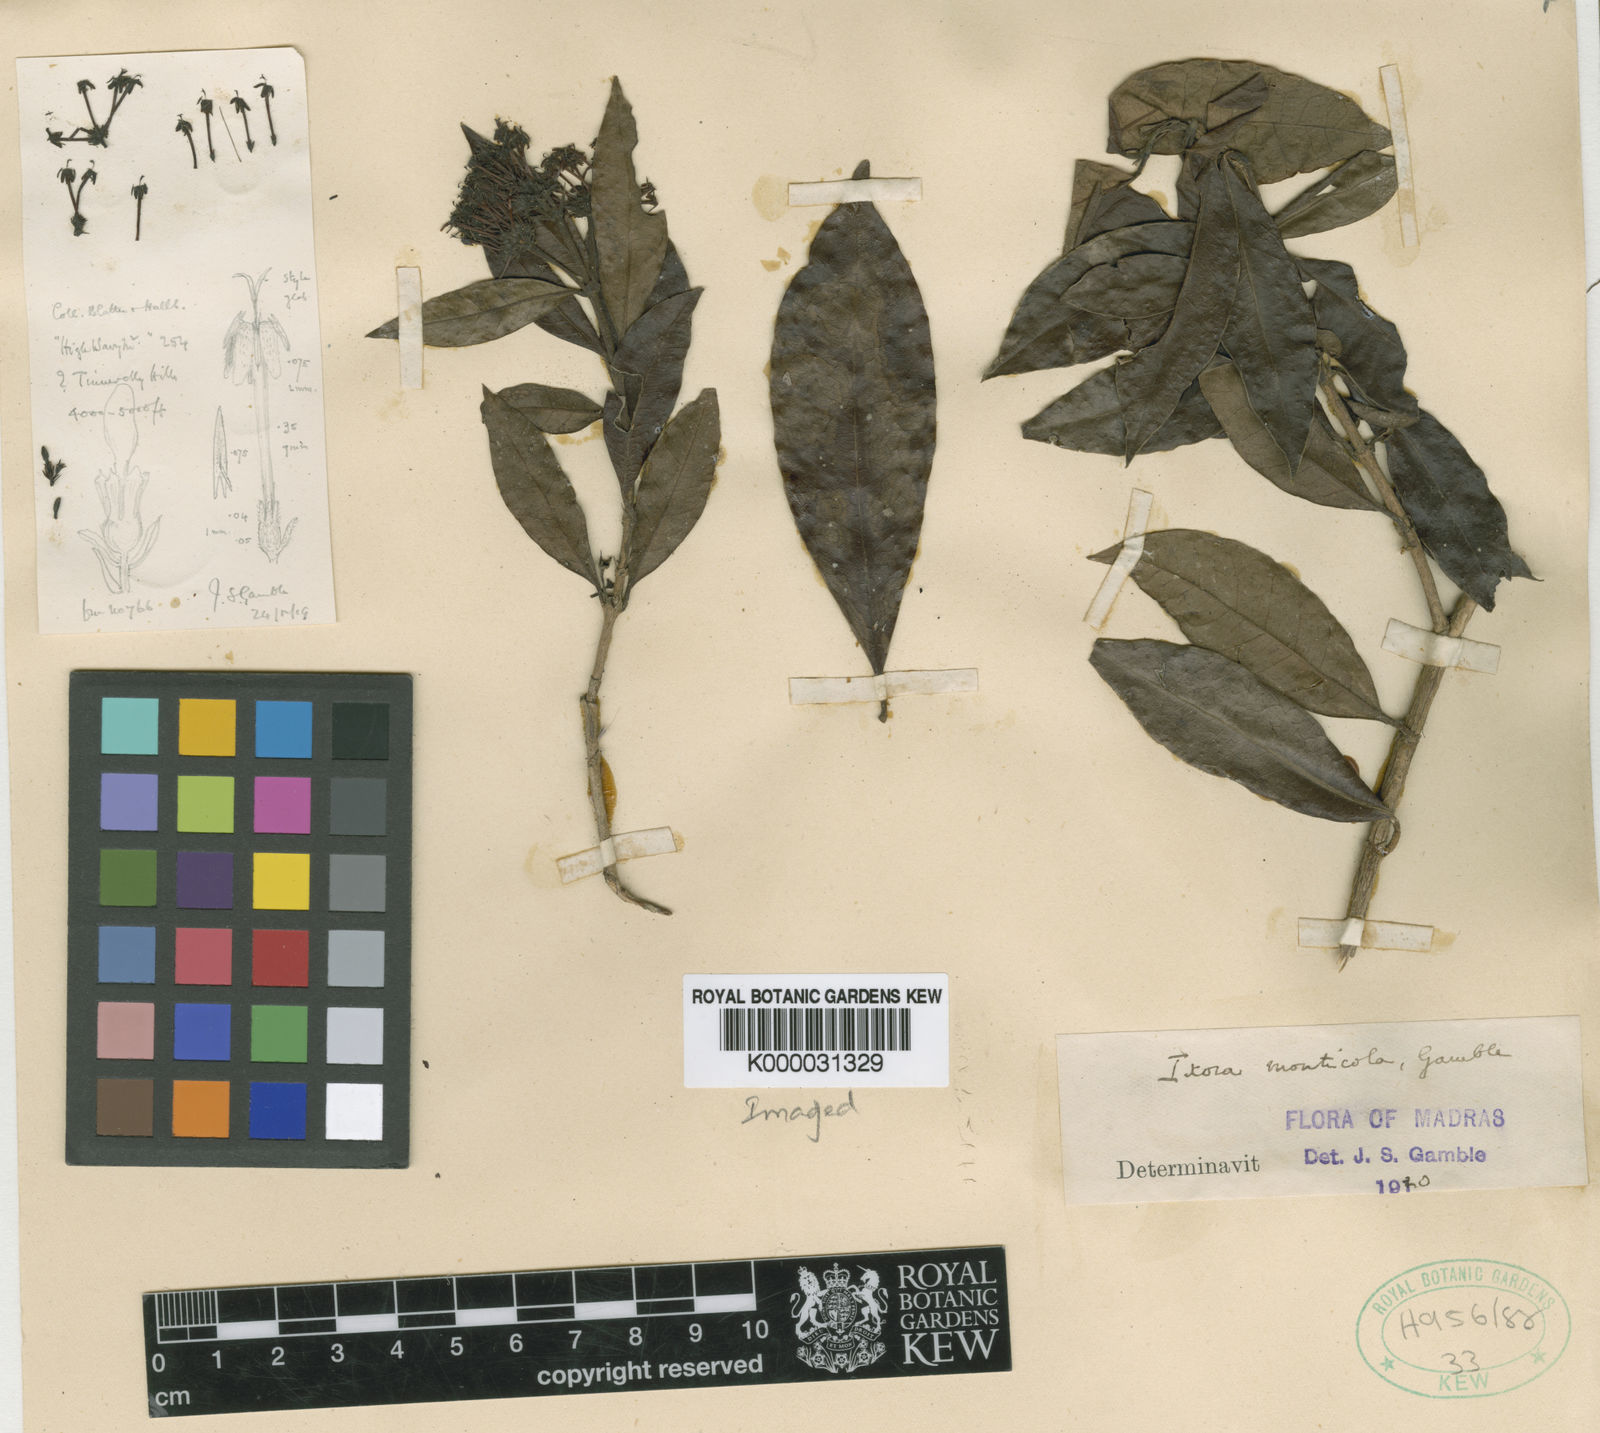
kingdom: Plantae
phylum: Tracheophyta
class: Magnoliopsida
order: Gentianales
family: Rubiaceae
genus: Ixora
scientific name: Ixora ravikumarii
